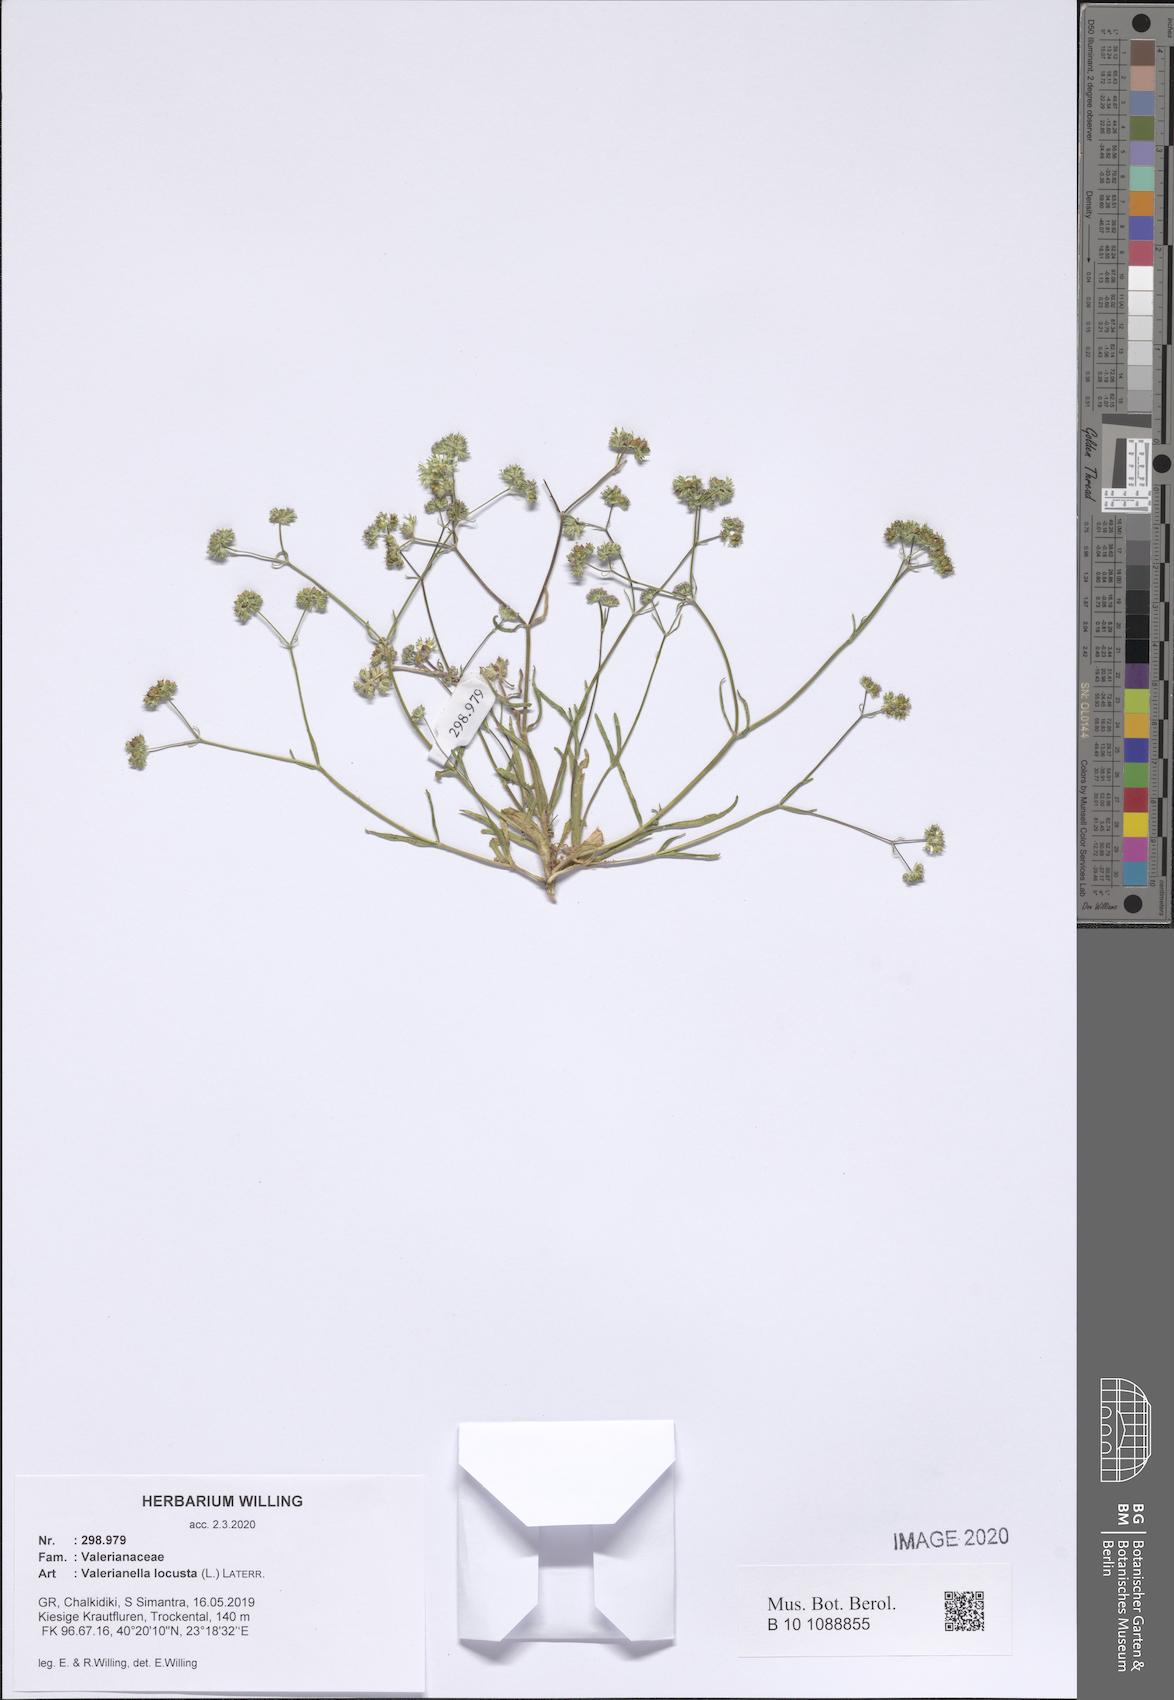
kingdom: Plantae
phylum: Tracheophyta
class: Magnoliopsida
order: Dipsacales
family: Caprifoliaceae
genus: Valerianella
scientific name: Valerianella locusta
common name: Common cornsalad
